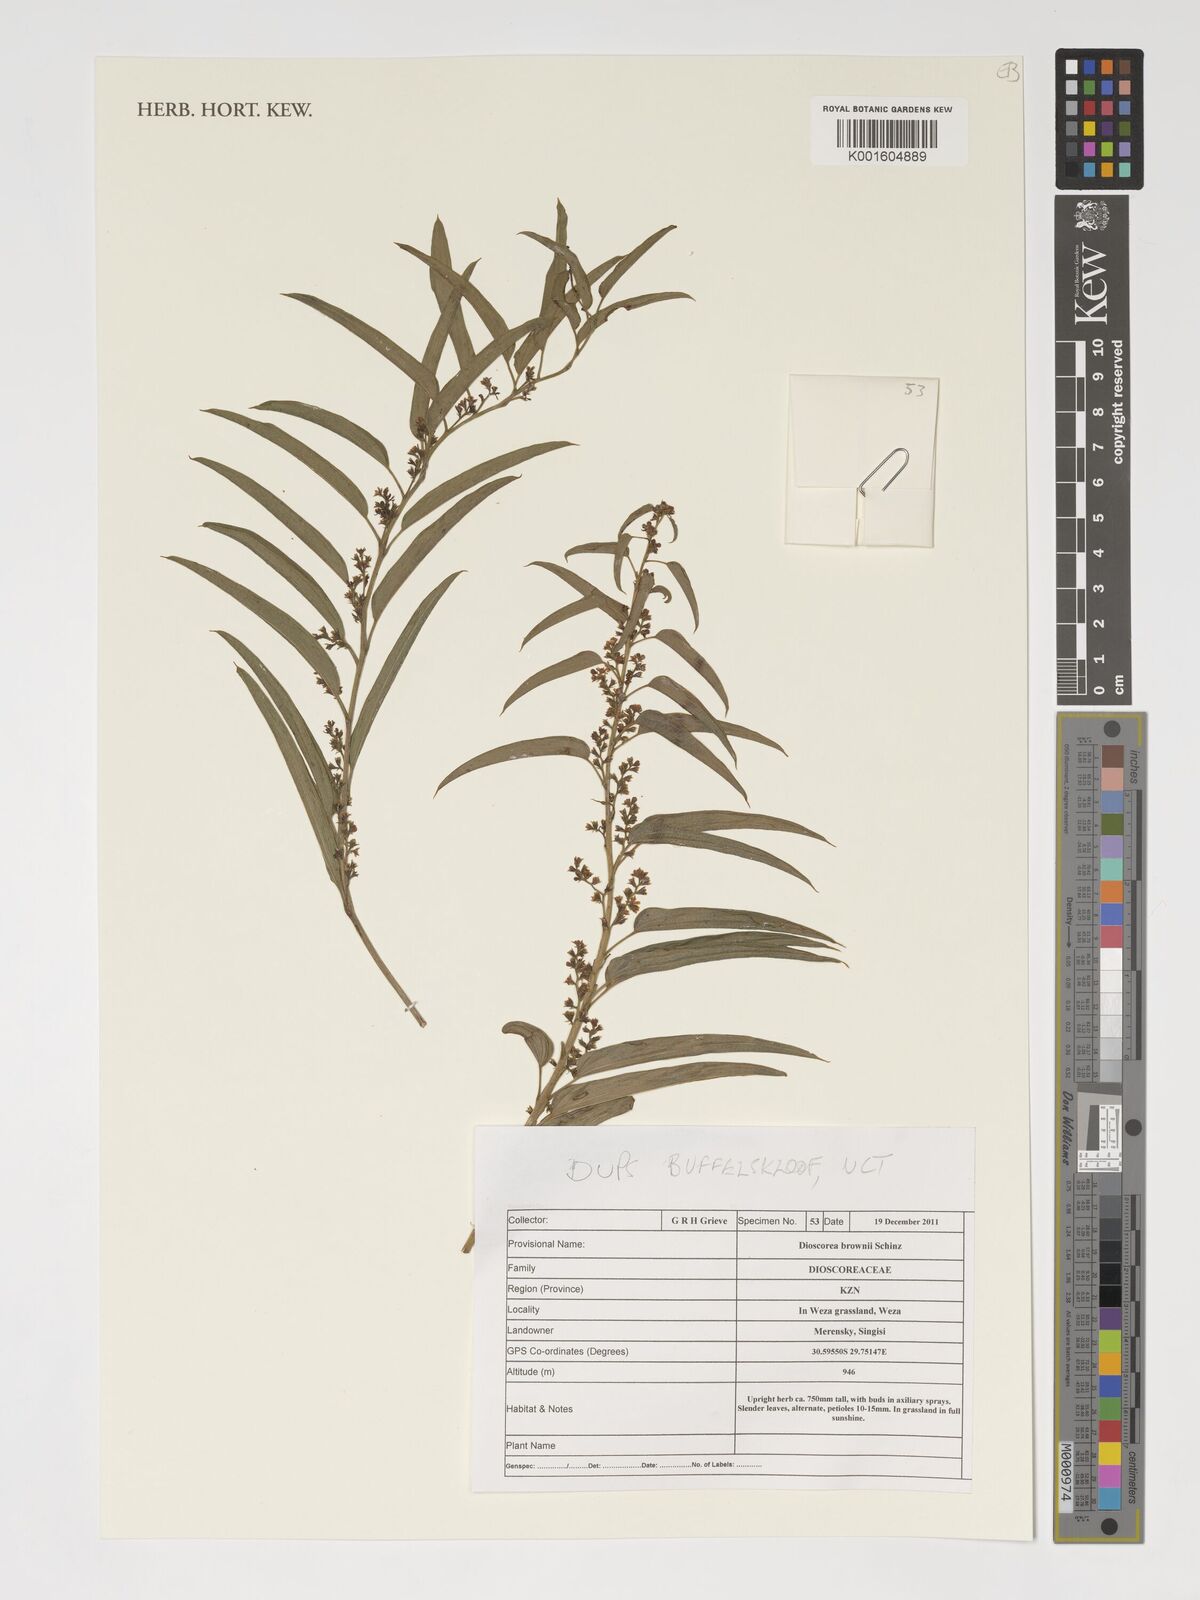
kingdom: Plantae
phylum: Tracheophyta
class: Liliopsida
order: Dioscoreales
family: Dioscoreaceae
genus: Dioscorea
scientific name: Dioscorea brownii
